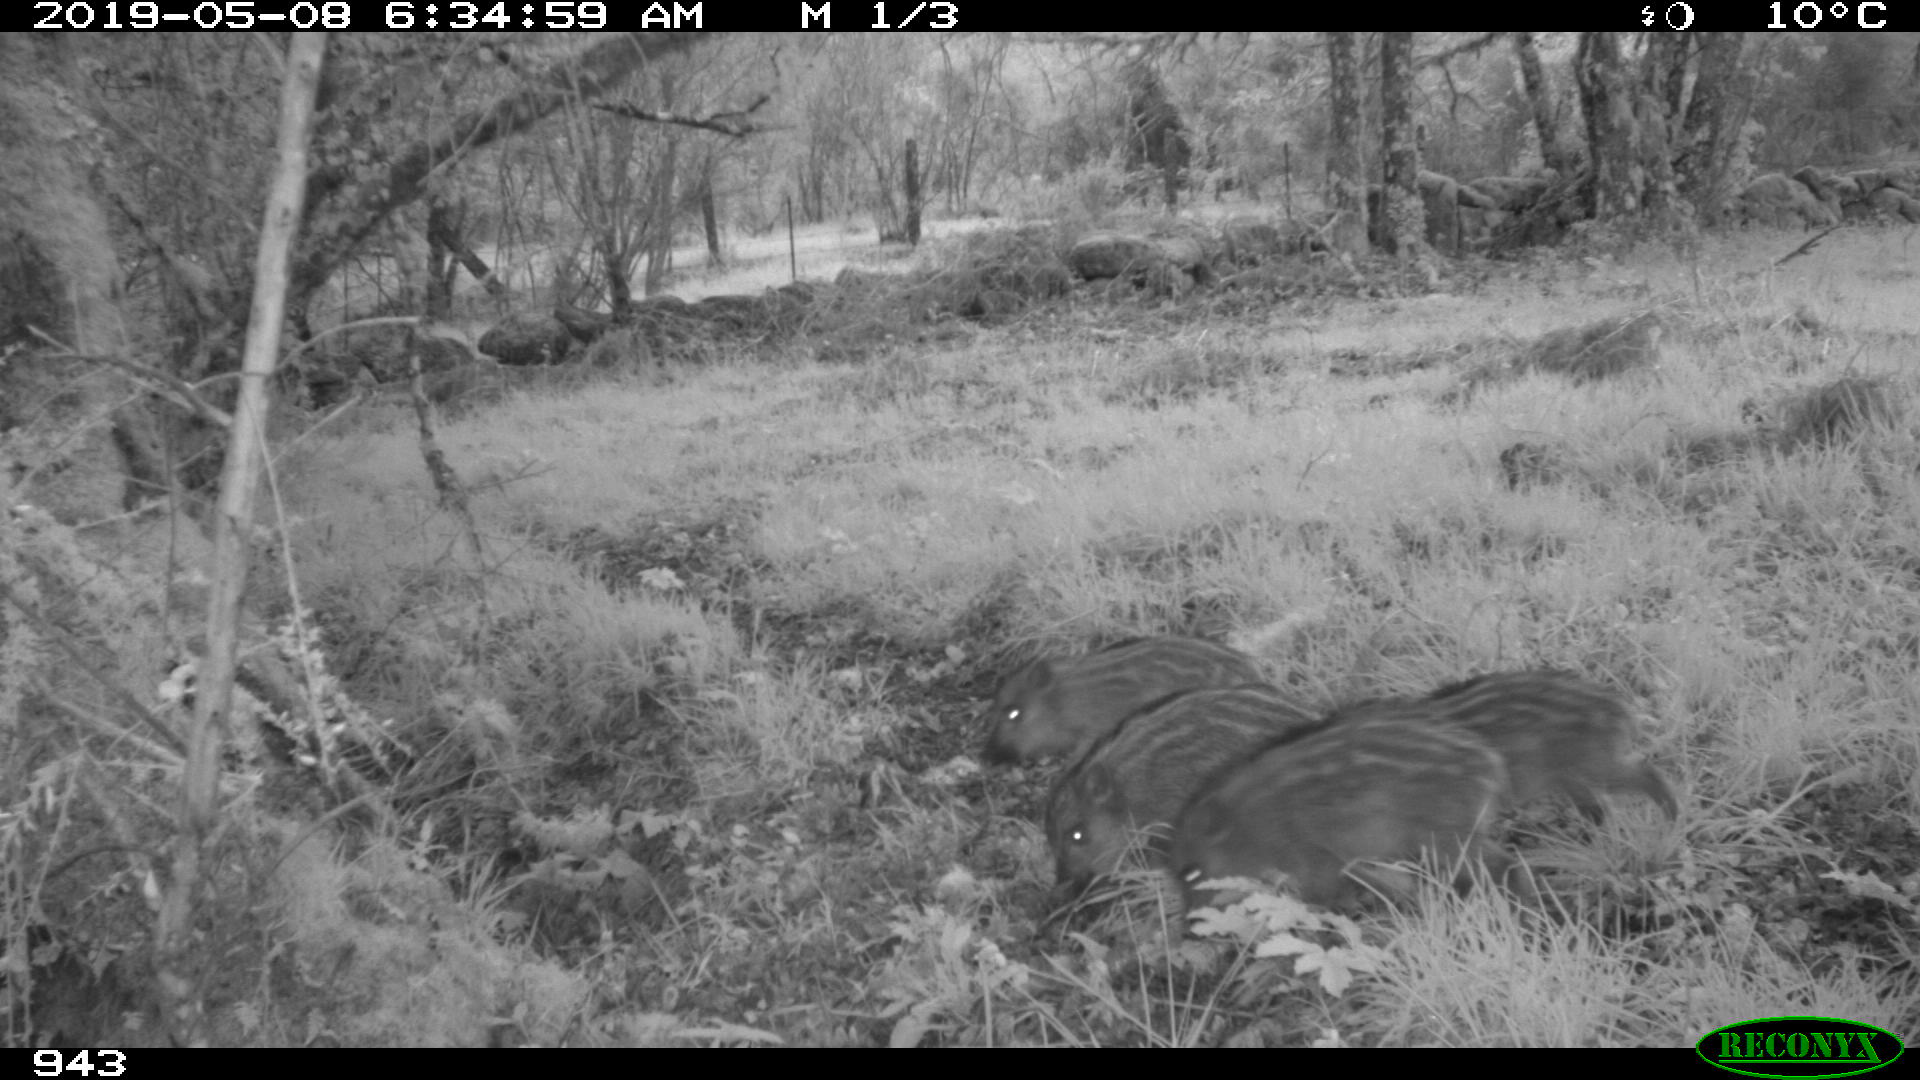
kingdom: Animalia
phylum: Chordata
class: Mammalia
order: Artiodactyla
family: Suidae
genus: Sus
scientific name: Sus scrofa
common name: Wild boar
